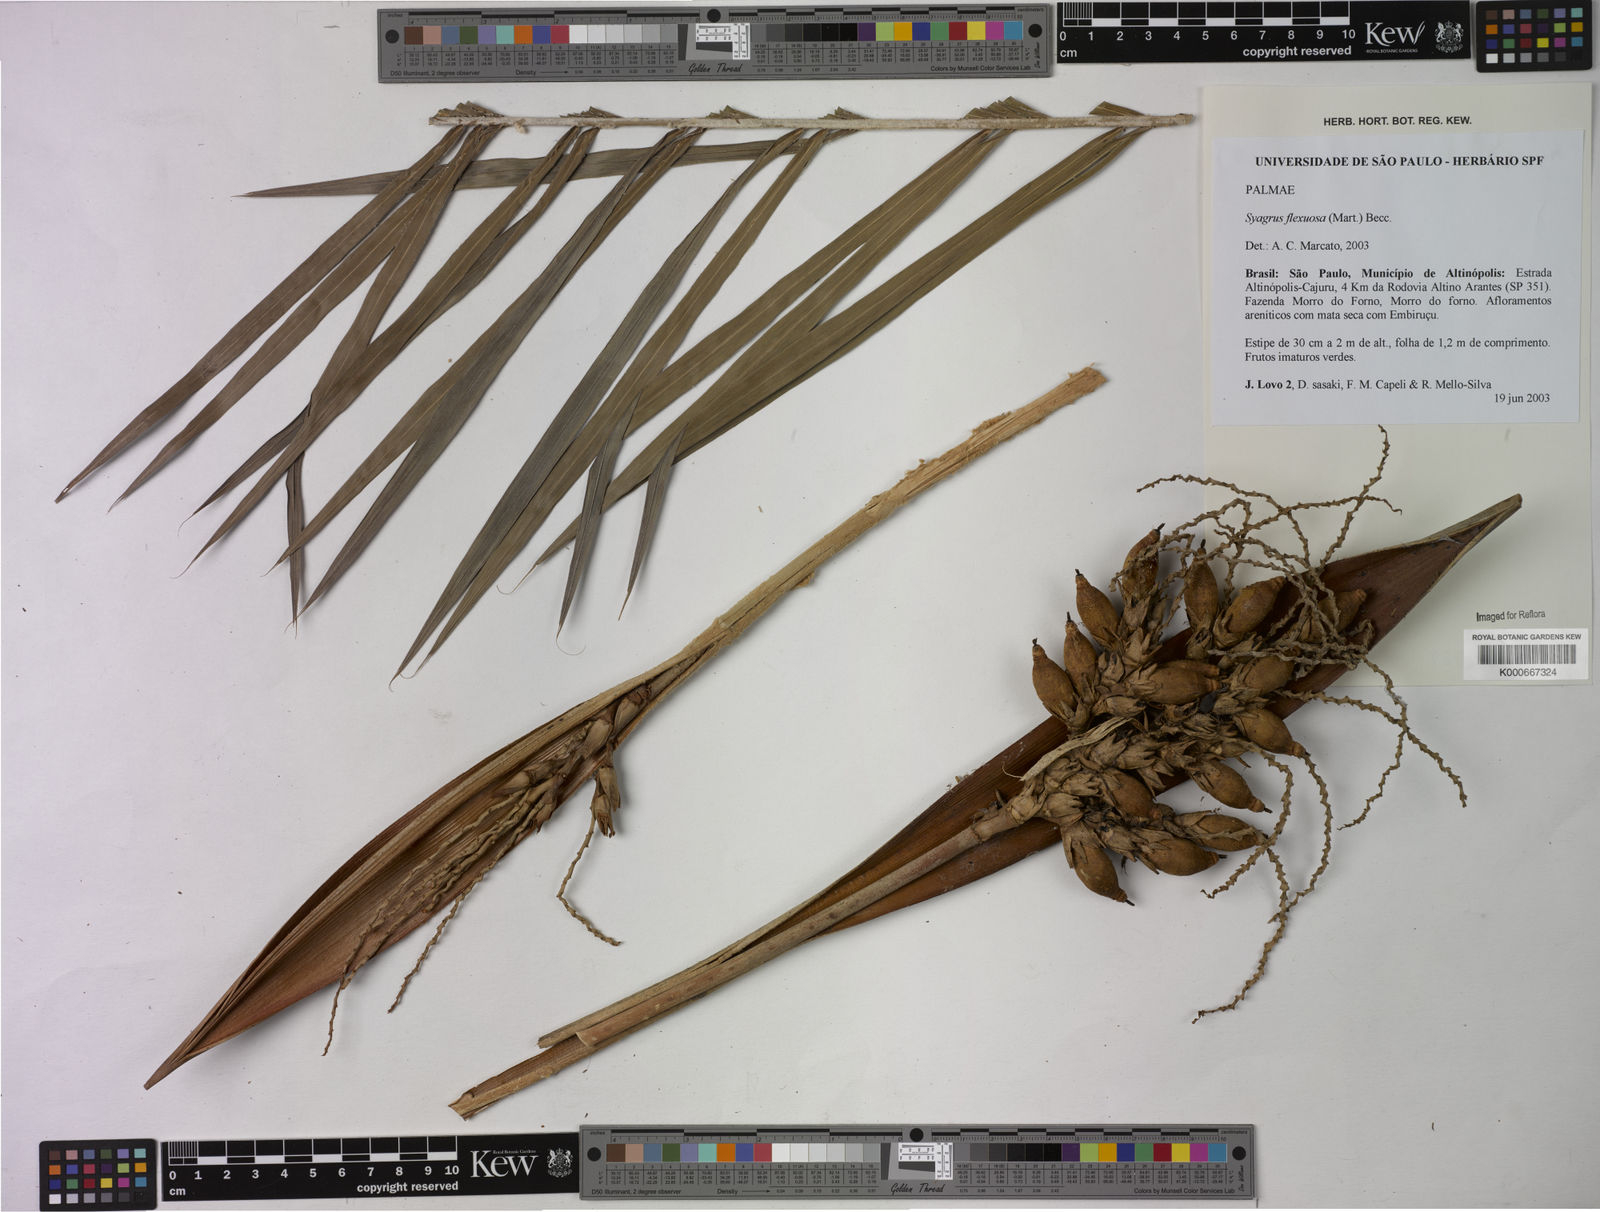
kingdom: Plantae
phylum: Tracheophyta
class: Liliopsida
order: Arecales
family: Arecaceae
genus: Syagrus
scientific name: Syagrus flexuosa
